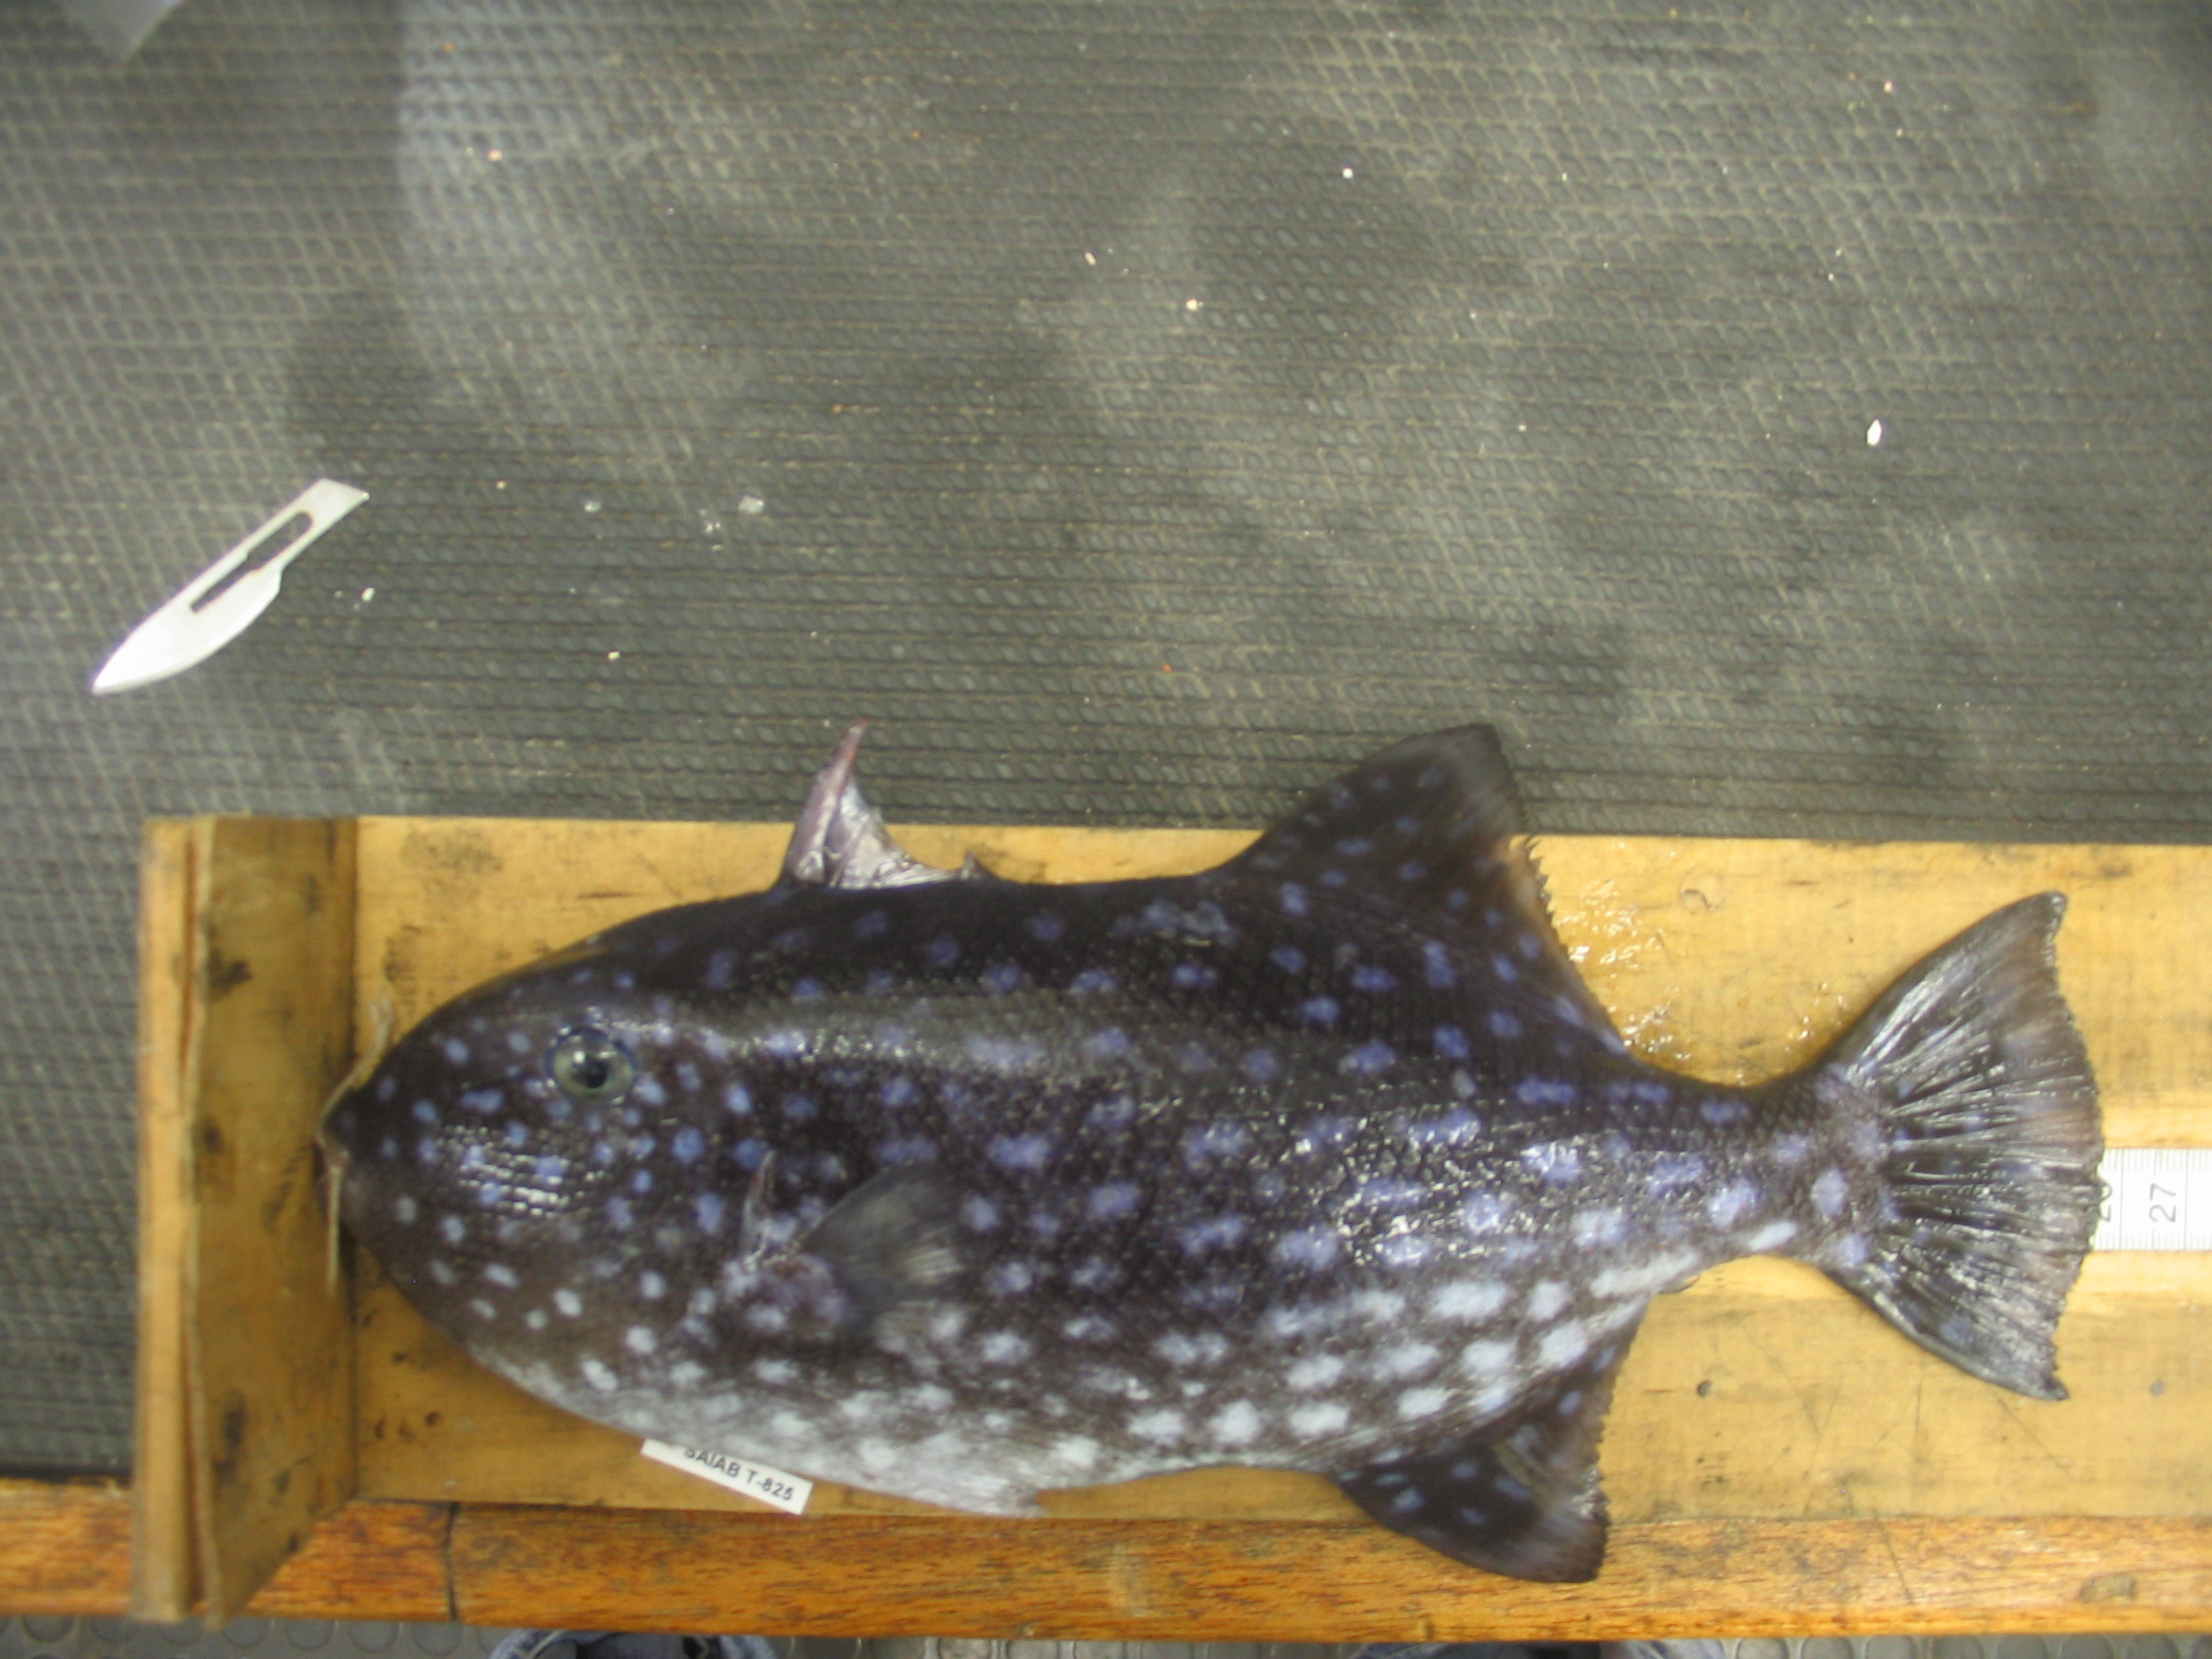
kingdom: Animalia
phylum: Chordata
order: Tetraodontiformes
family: Balistidae
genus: Canthidermis
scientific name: Canthidermis maculata
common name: Rough triggerfish
